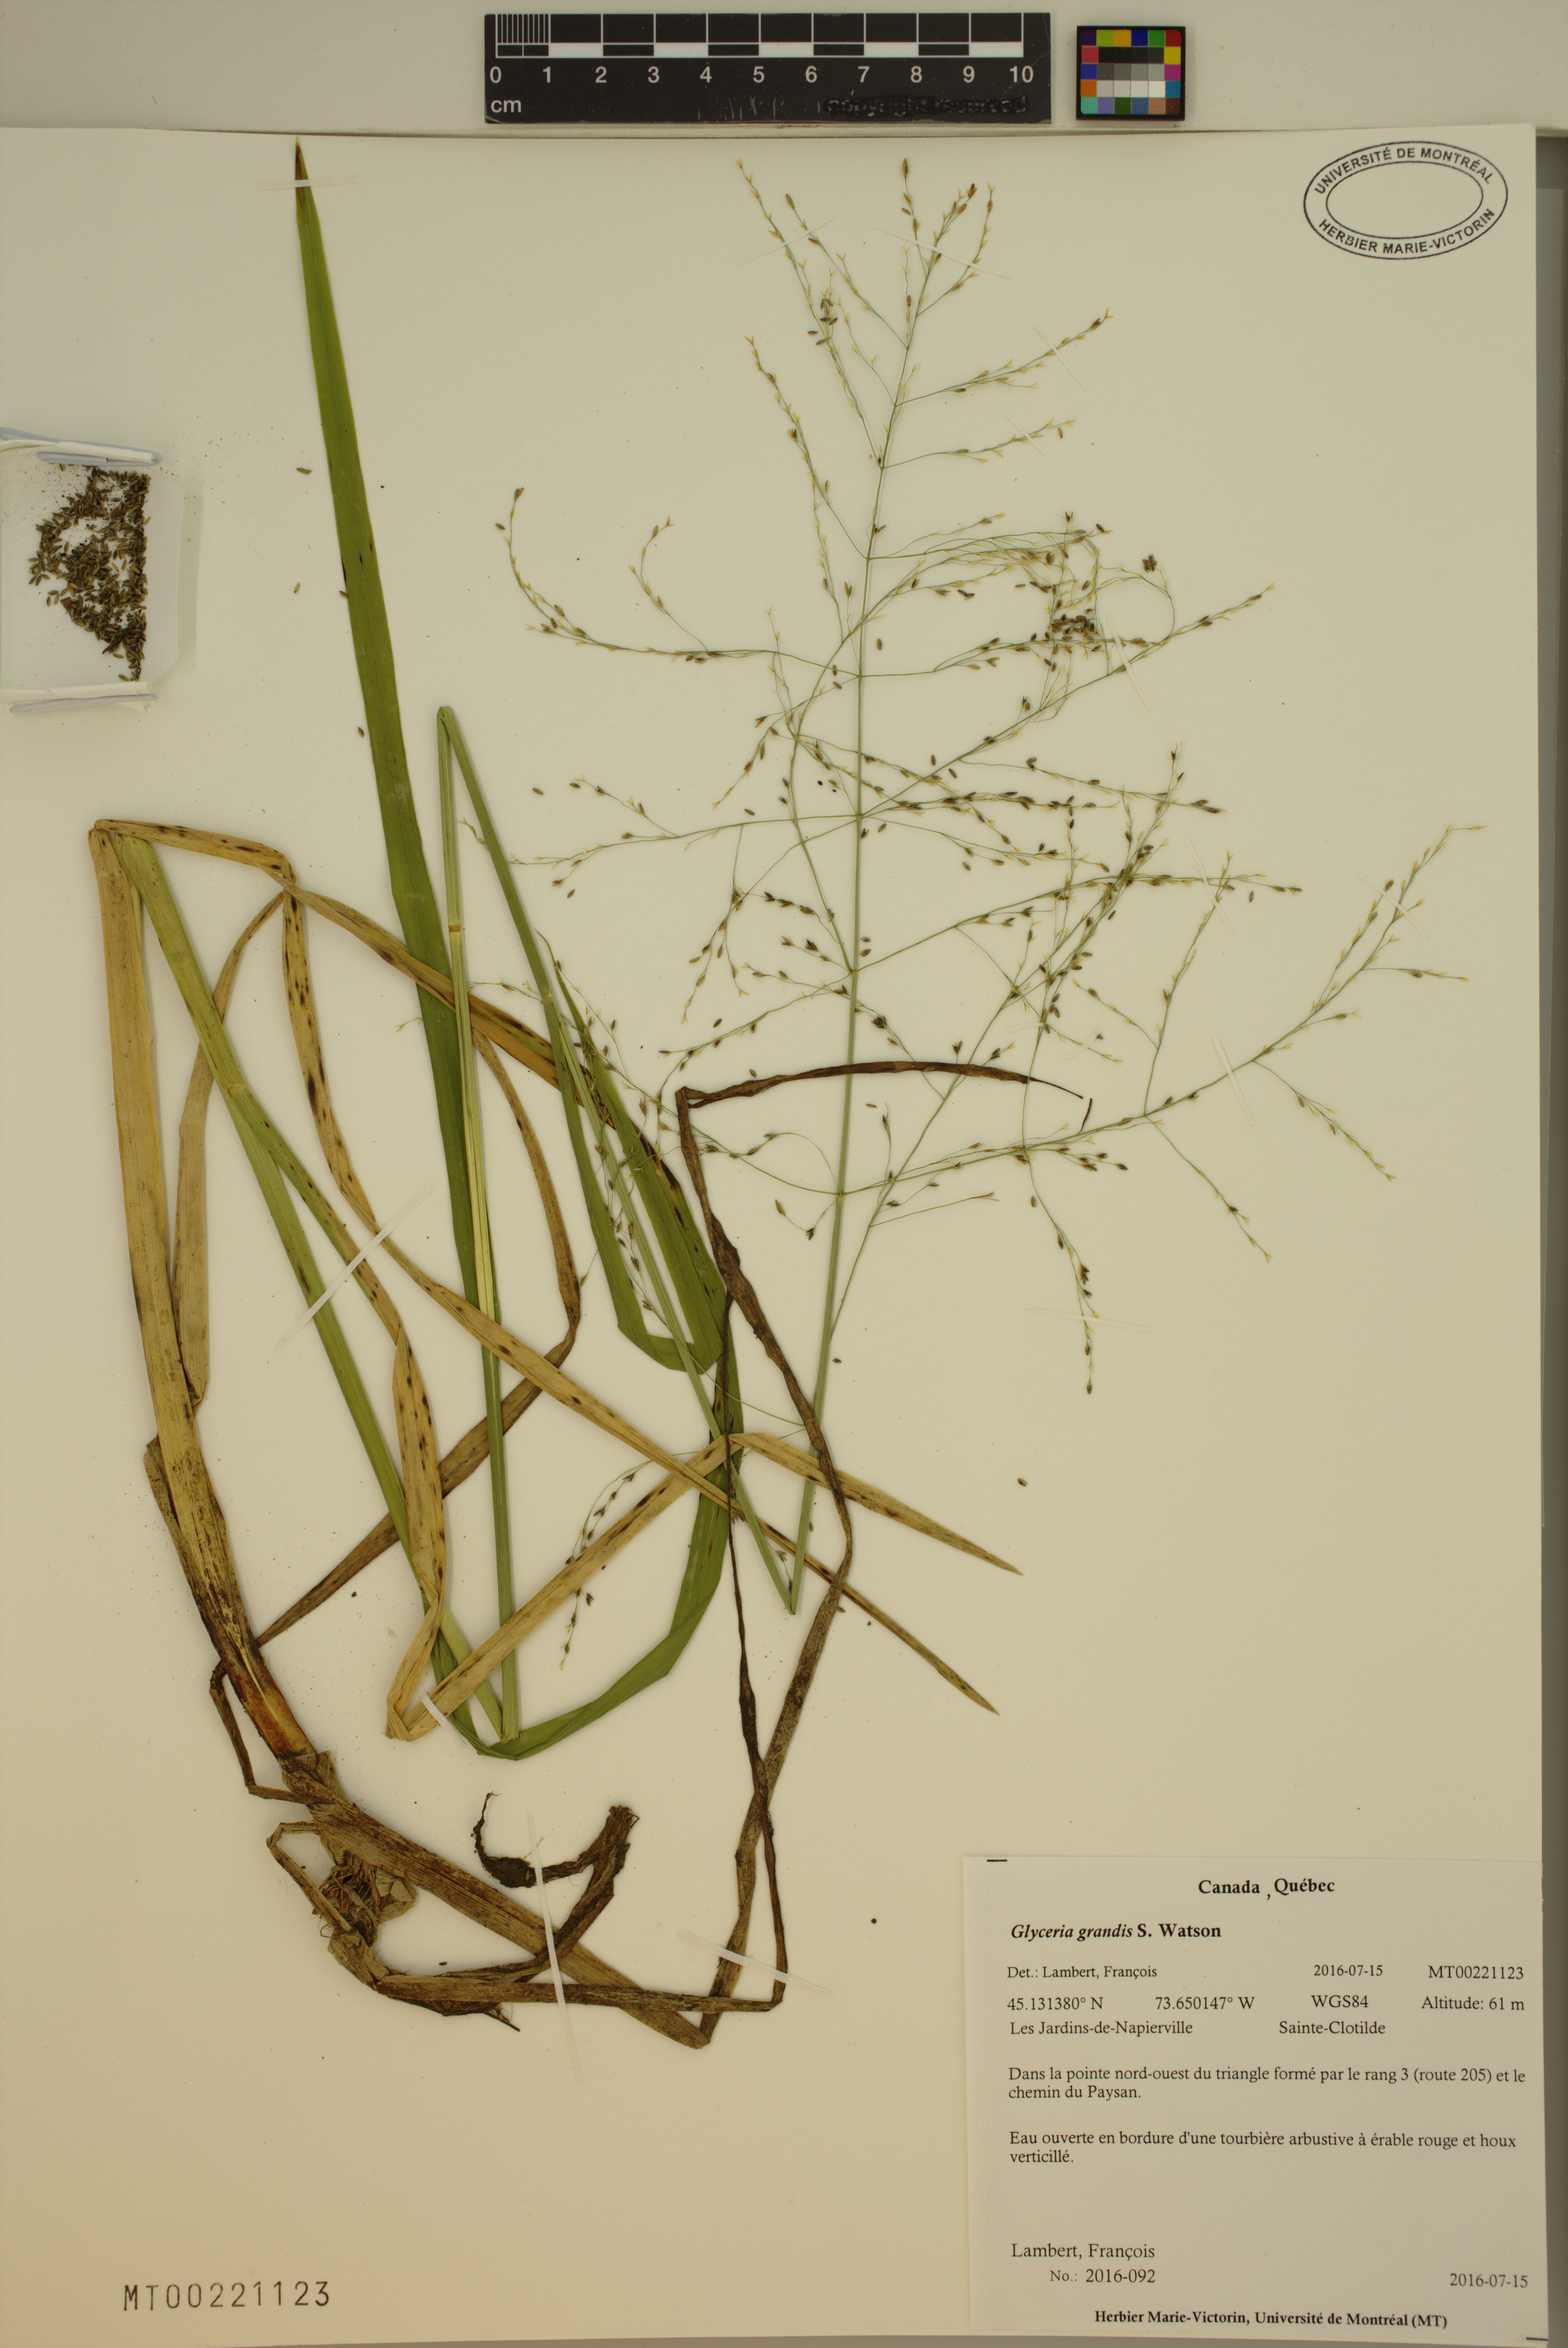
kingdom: Plantae
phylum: Tracheophyta
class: Liliopsida
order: Poales
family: Poaceae
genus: Glyceria
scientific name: Glyceria grandis
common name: American glyceria
